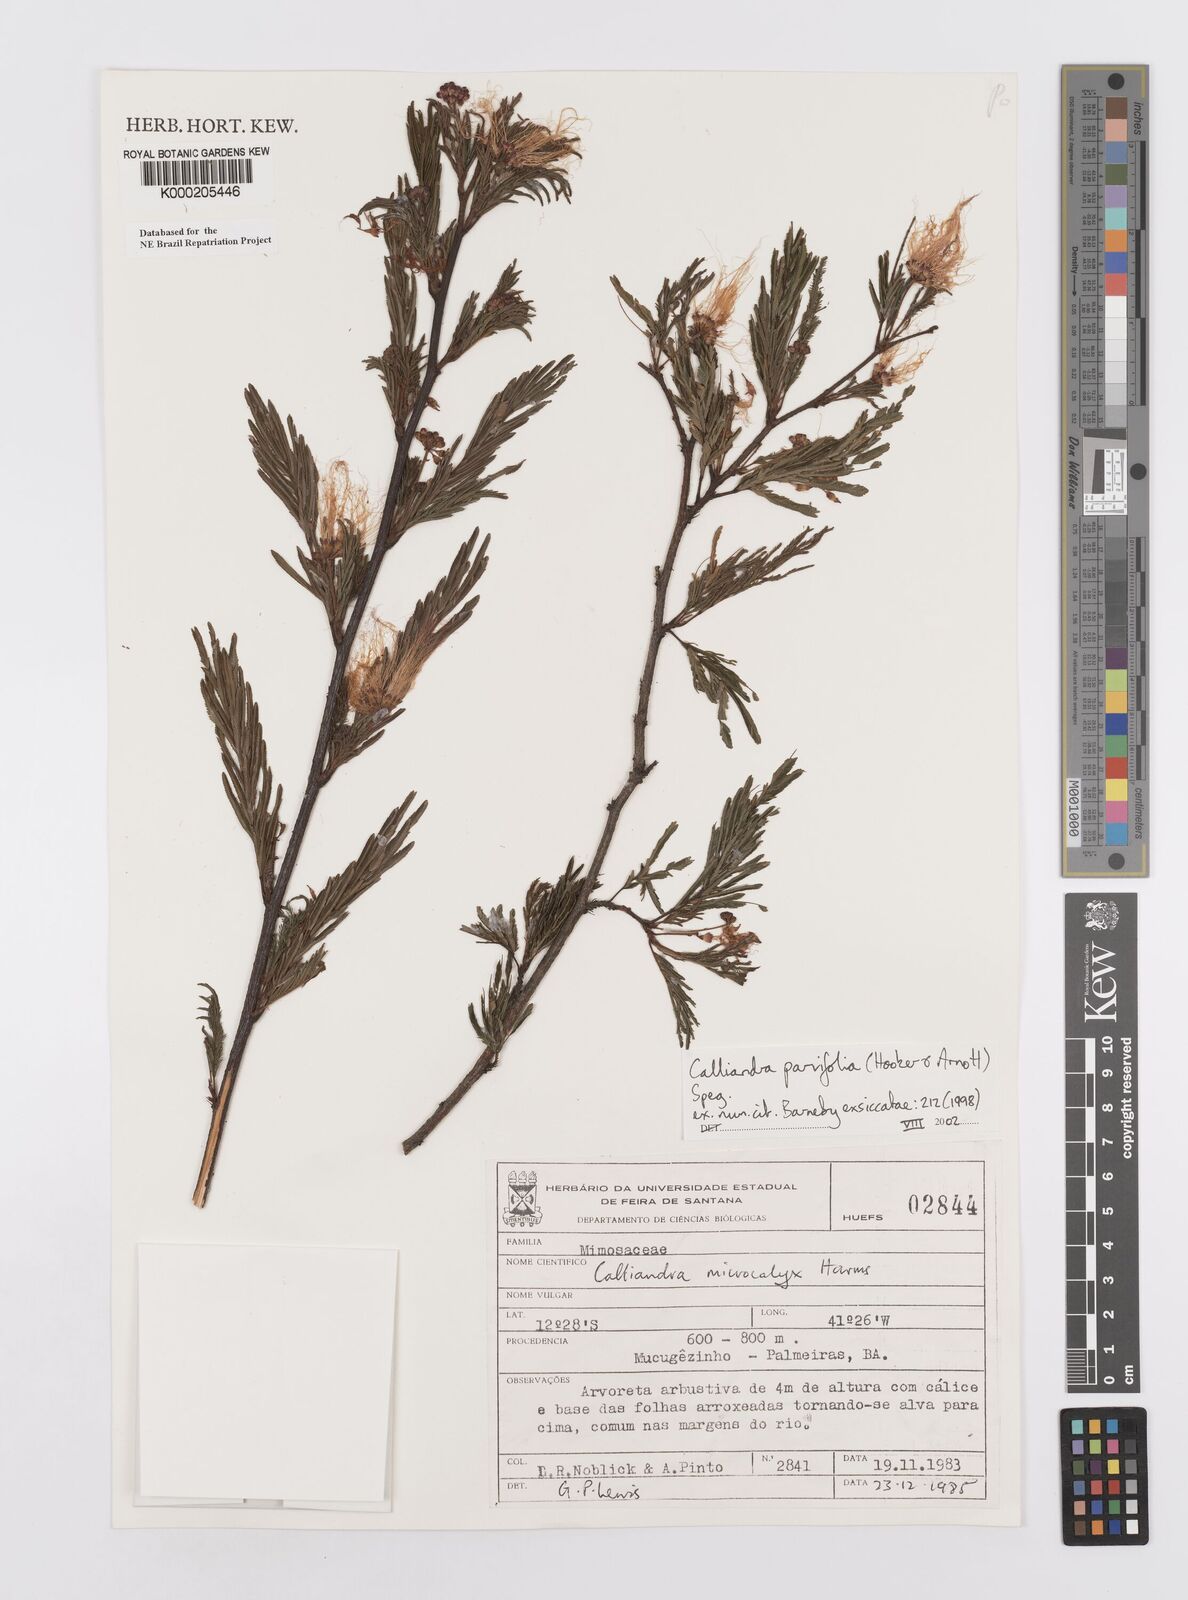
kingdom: Plantae
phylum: Tracheophyta
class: Magnoliopsida
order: Fabales
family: Fabaceae
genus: Calliandra
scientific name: Calliandra parvifolia
